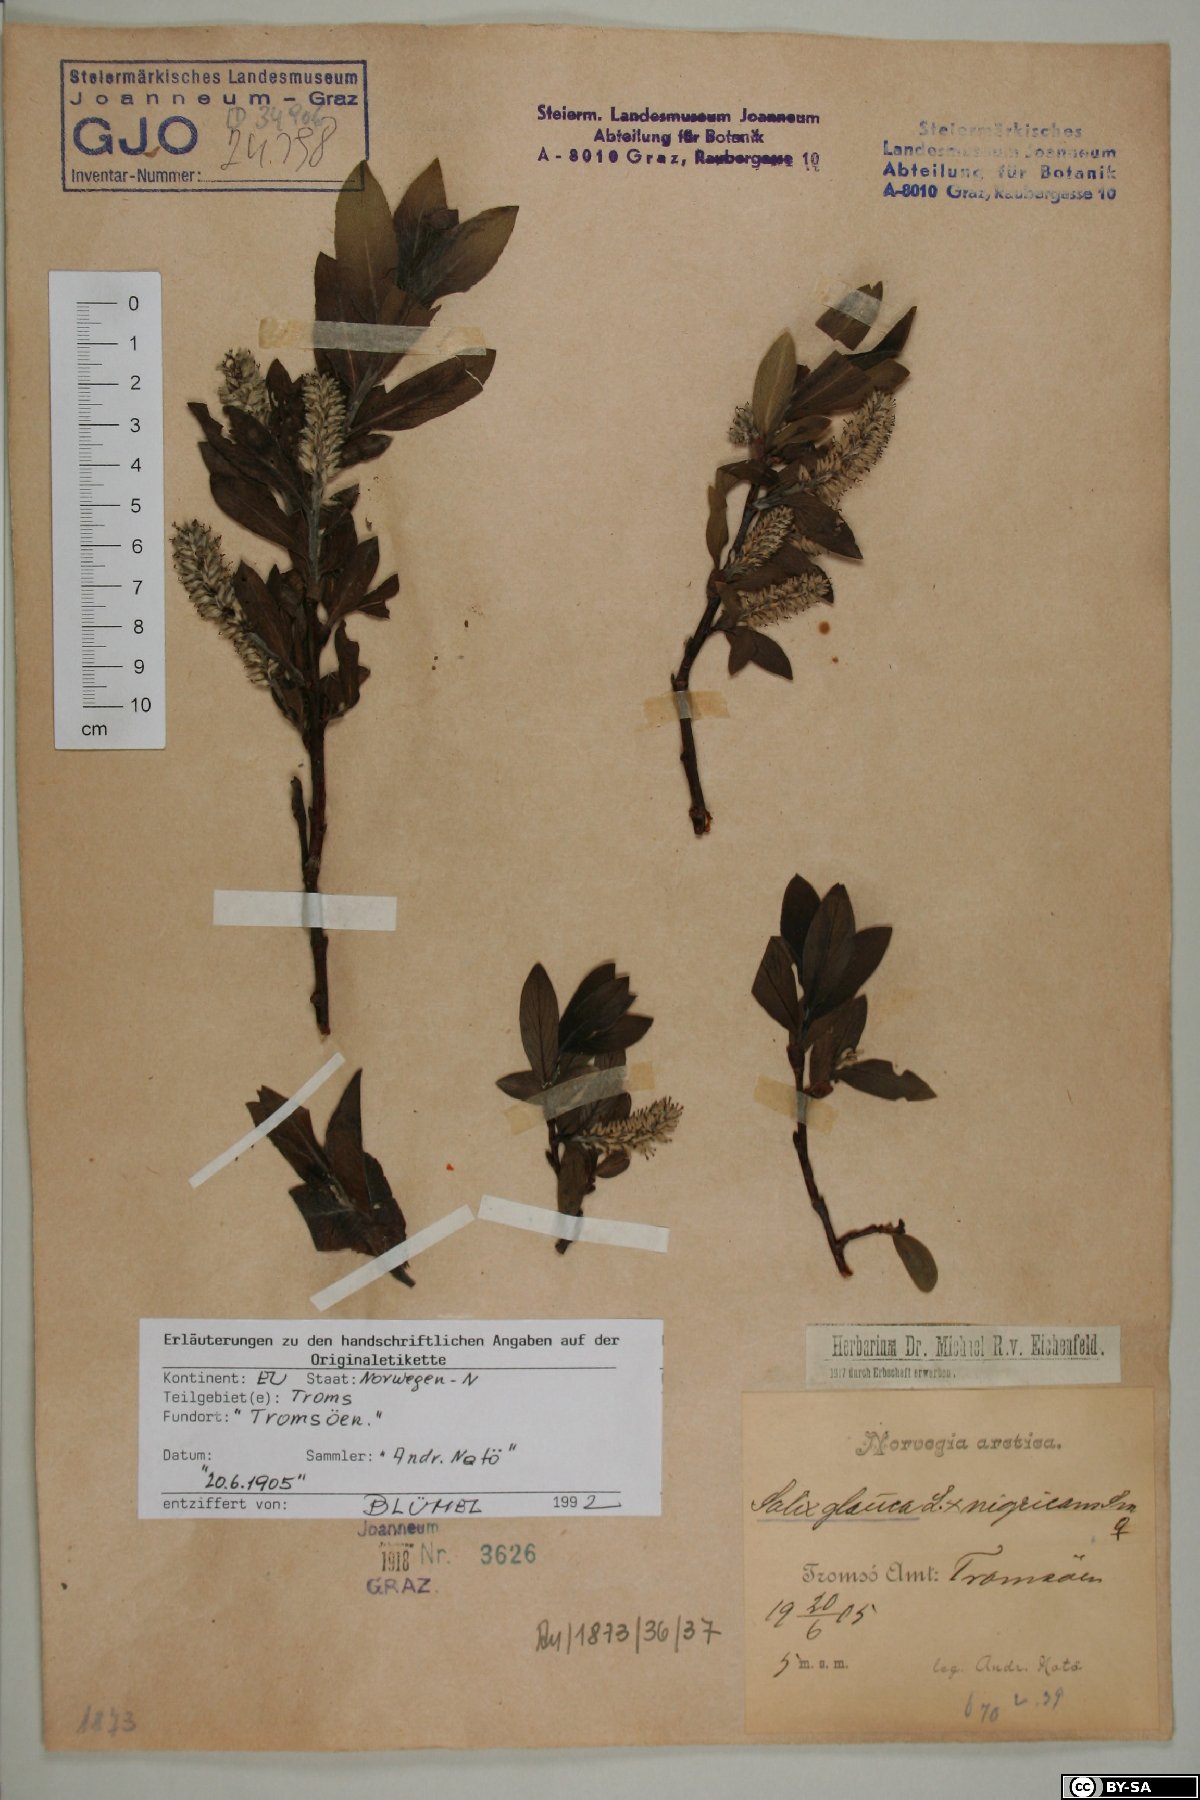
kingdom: Plantae
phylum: Tracheophyta
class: Magnoliopsida
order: Malpighiales
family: Salicaceae
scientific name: Salicaceae
